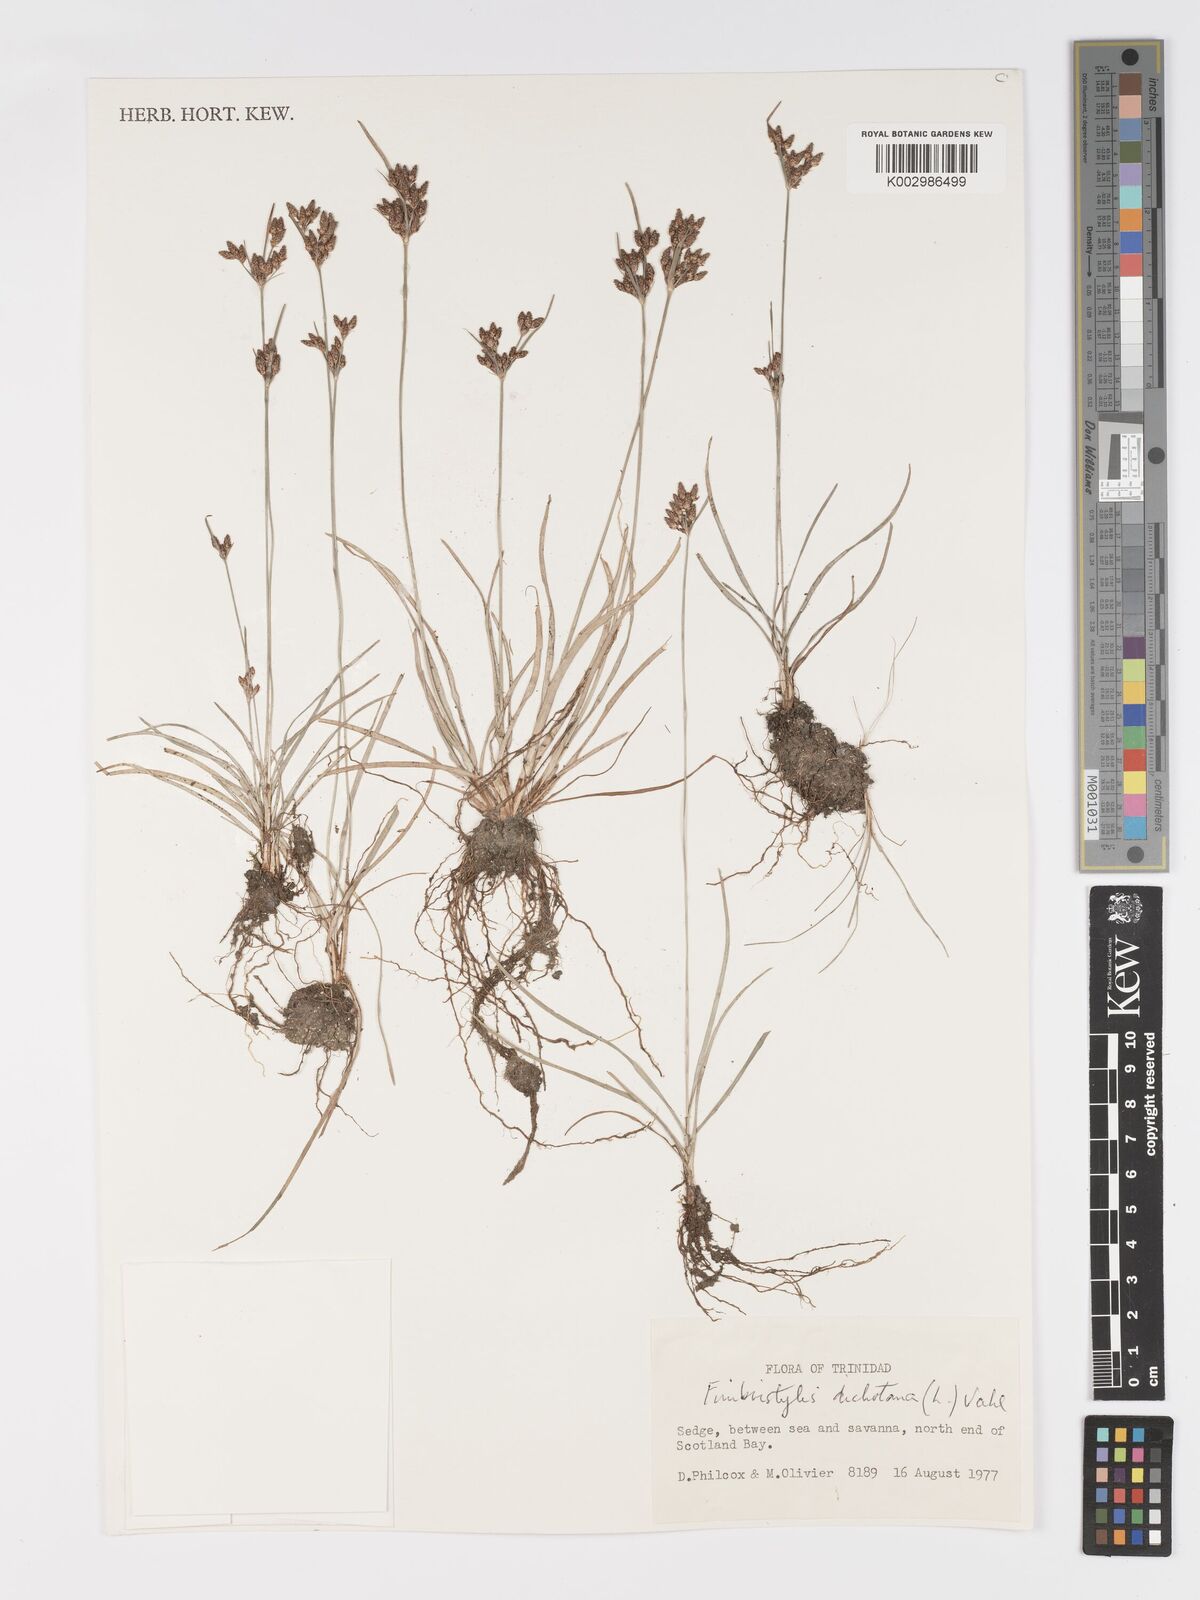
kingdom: Plantae
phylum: Tracheophyta
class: Liliopsida
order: Poales
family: Cyperaceae
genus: Fimbristylis
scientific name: Fimbristylis dichotoma
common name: Forked fimbry
